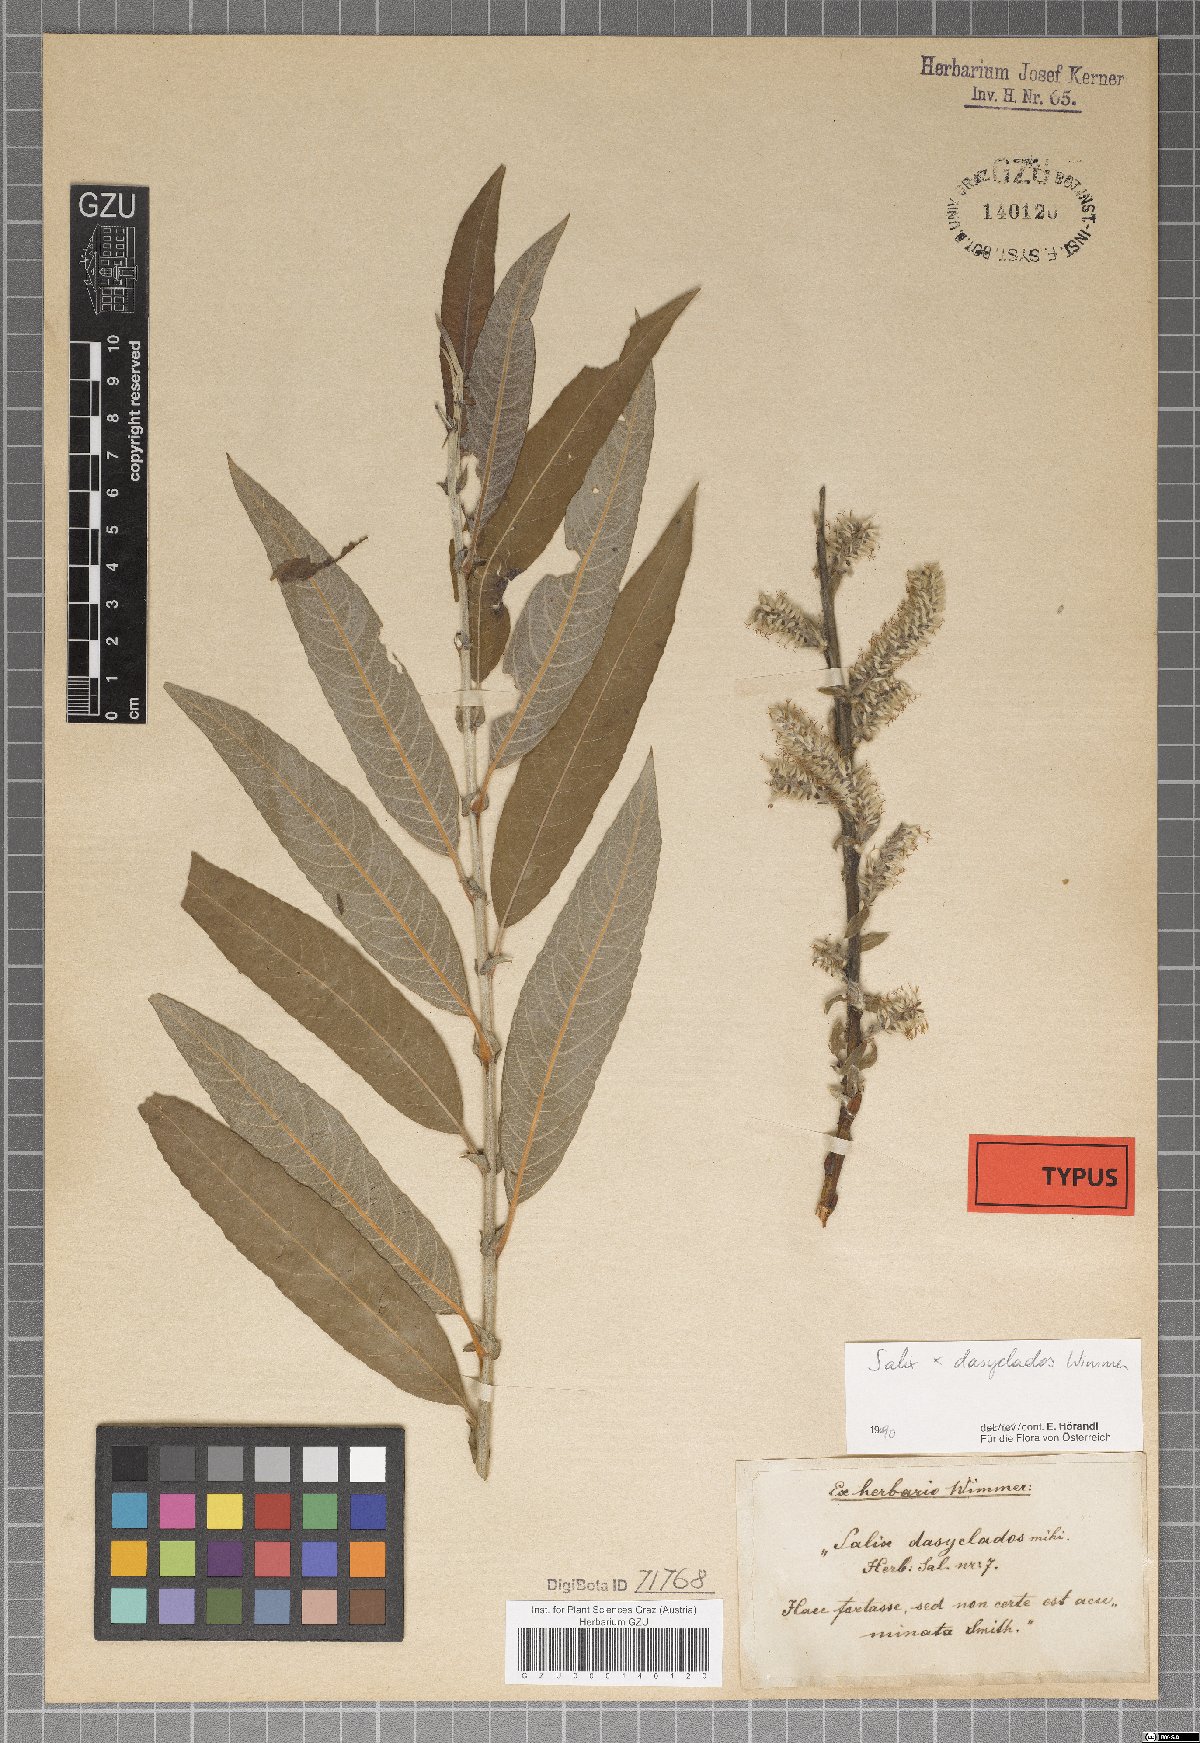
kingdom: Plantae
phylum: Tracheophyta
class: Magnoliopsida
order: Malpighiales
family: Salicaceae
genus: Salix
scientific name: Salix gmelinii
